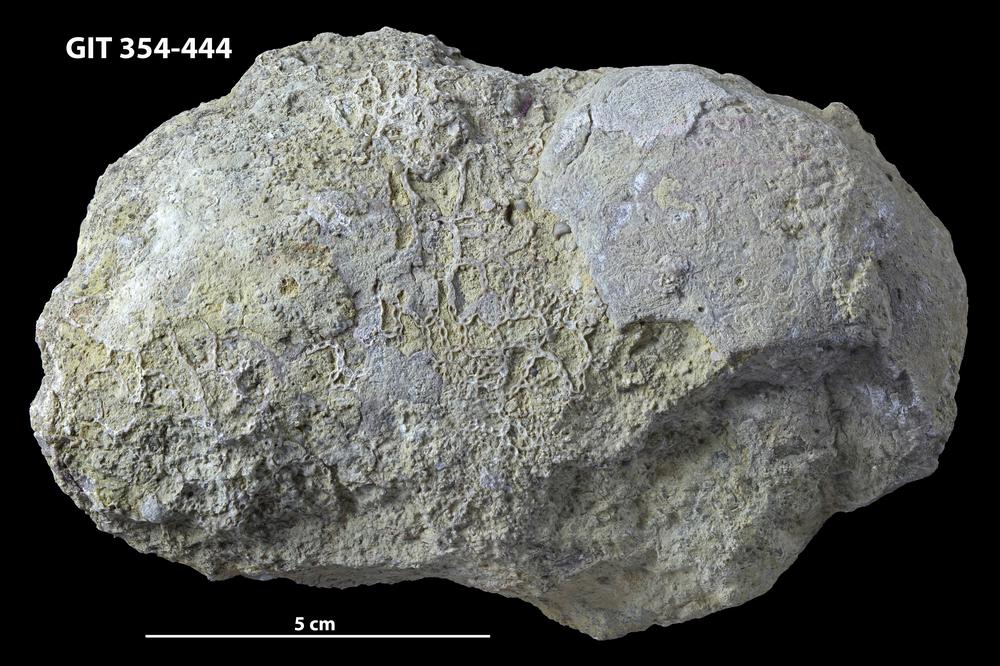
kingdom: Animalia
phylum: Porifera
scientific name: Porifera
